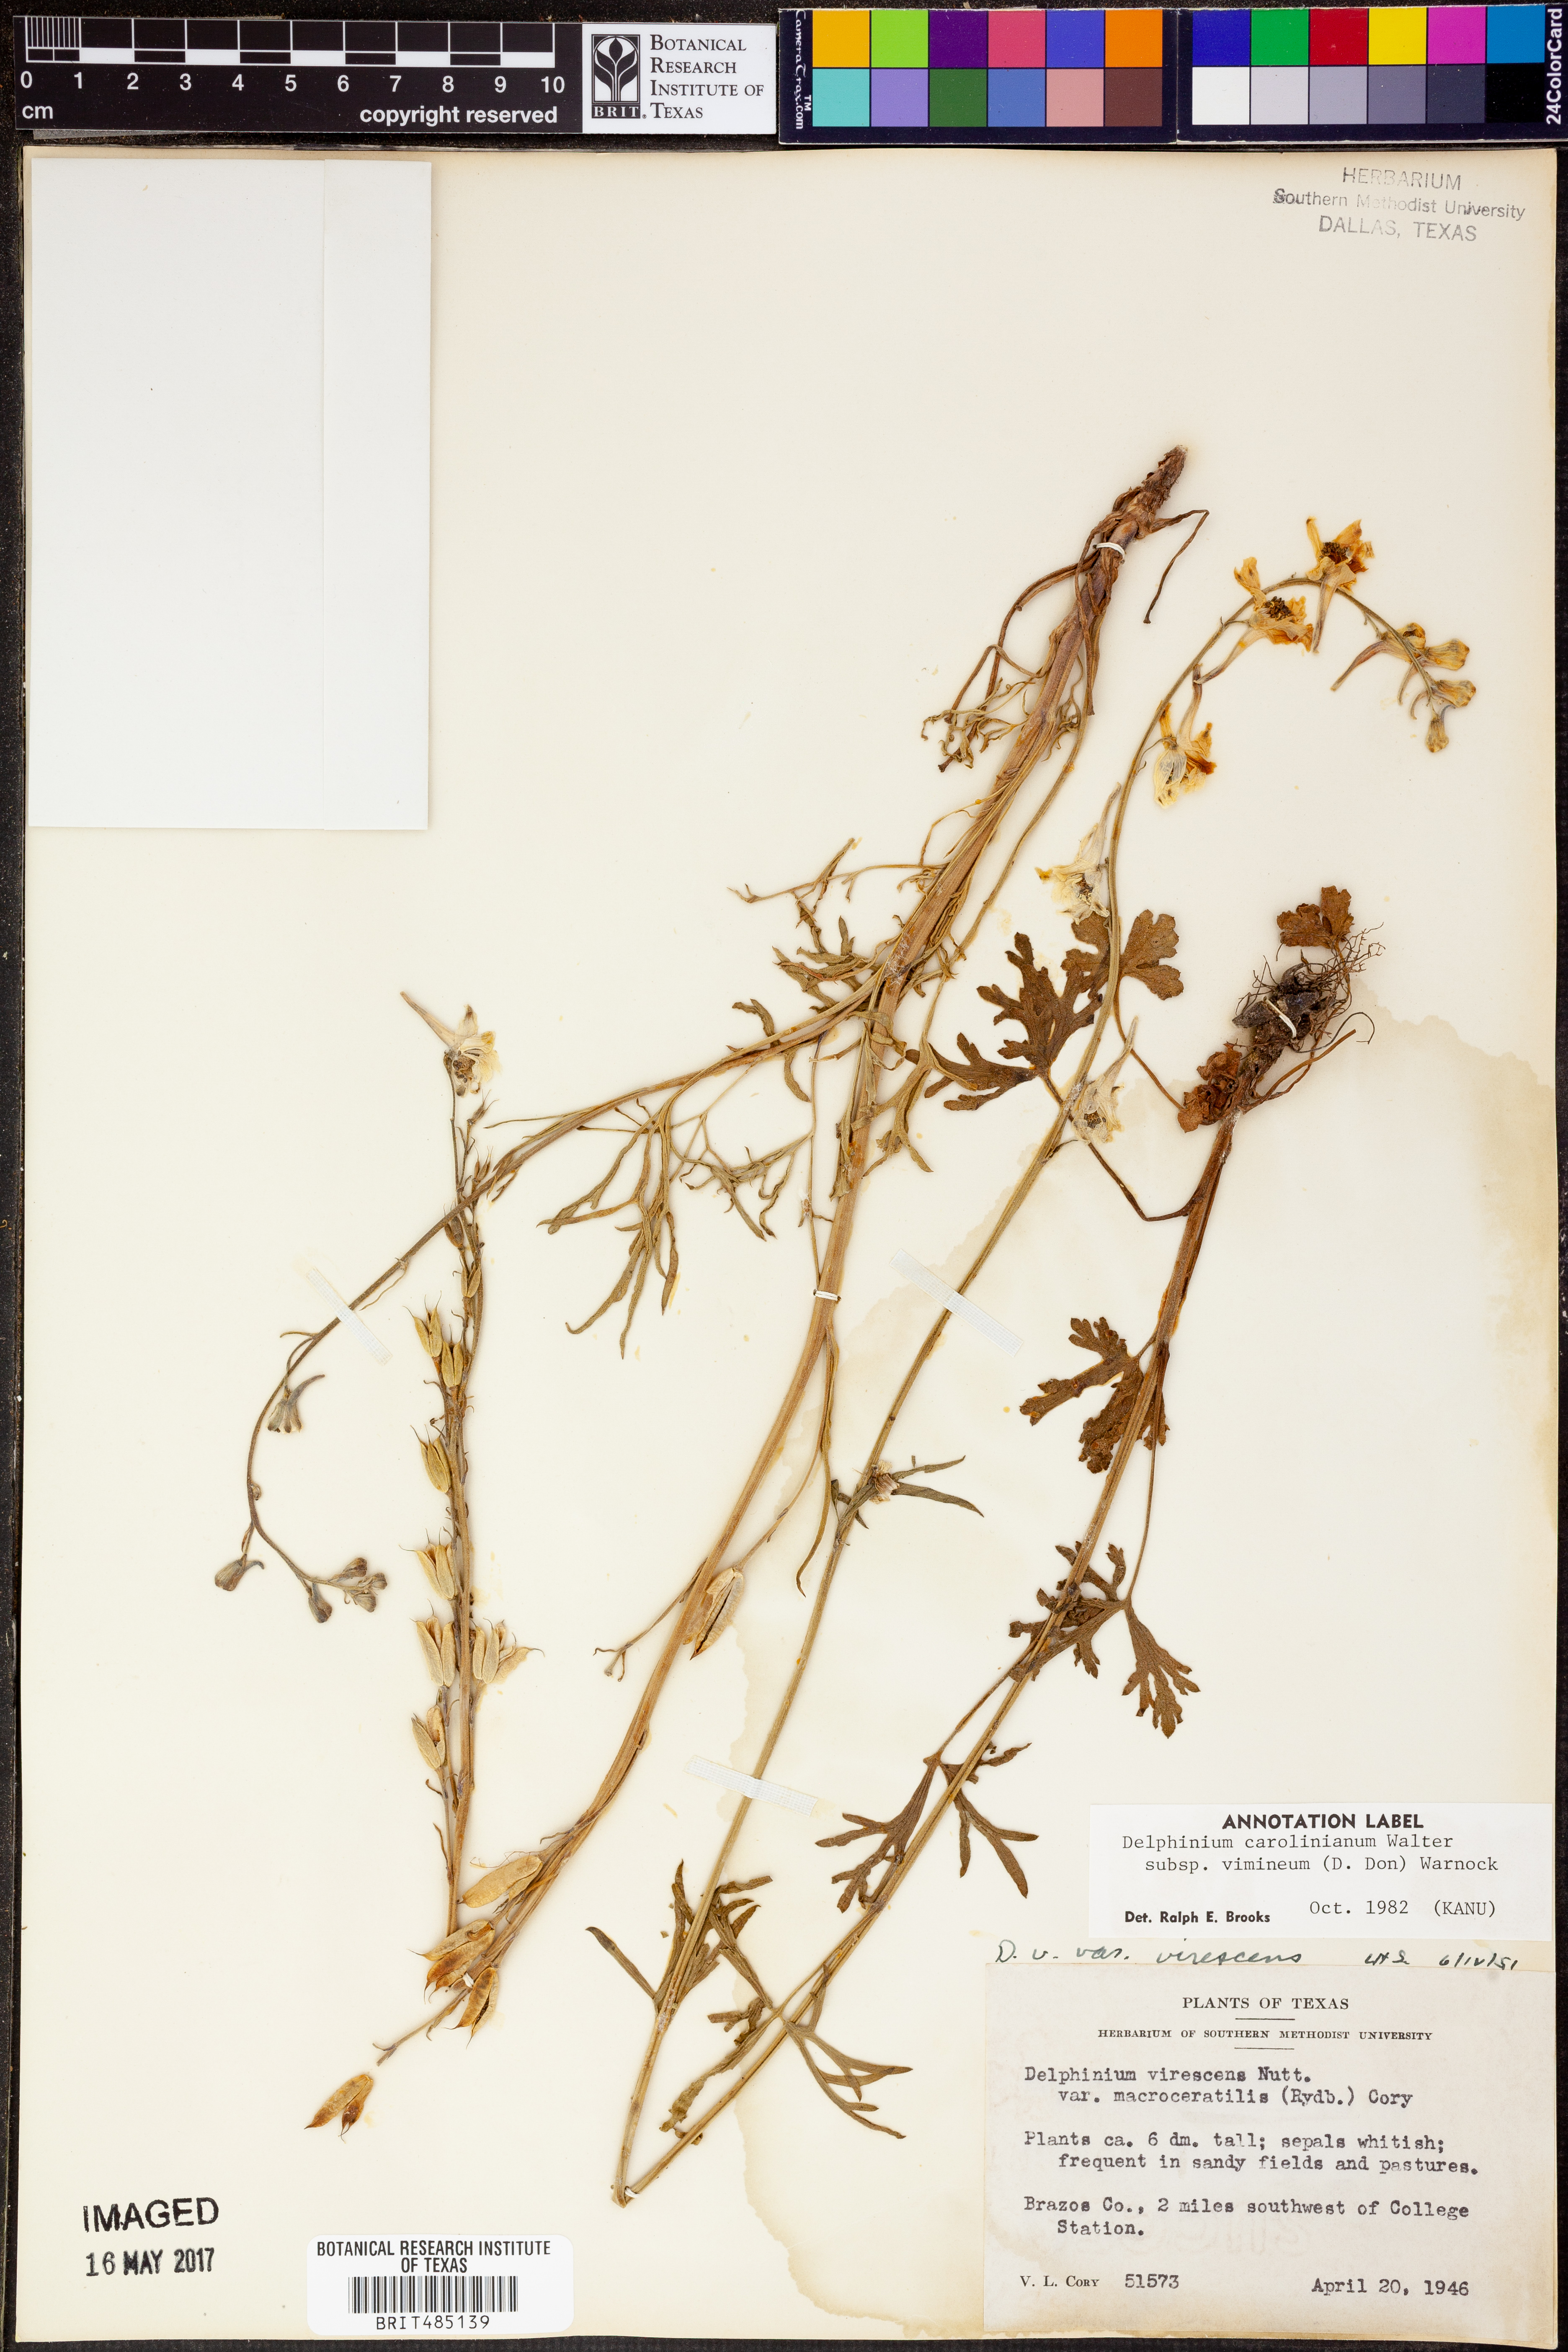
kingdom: Plantae
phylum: Tracheophyta
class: Magnoliopsida
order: Ranunculales
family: Ranunculaceae
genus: Delphinium
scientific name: Delphinium carolinianum
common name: Carolina larkspur
